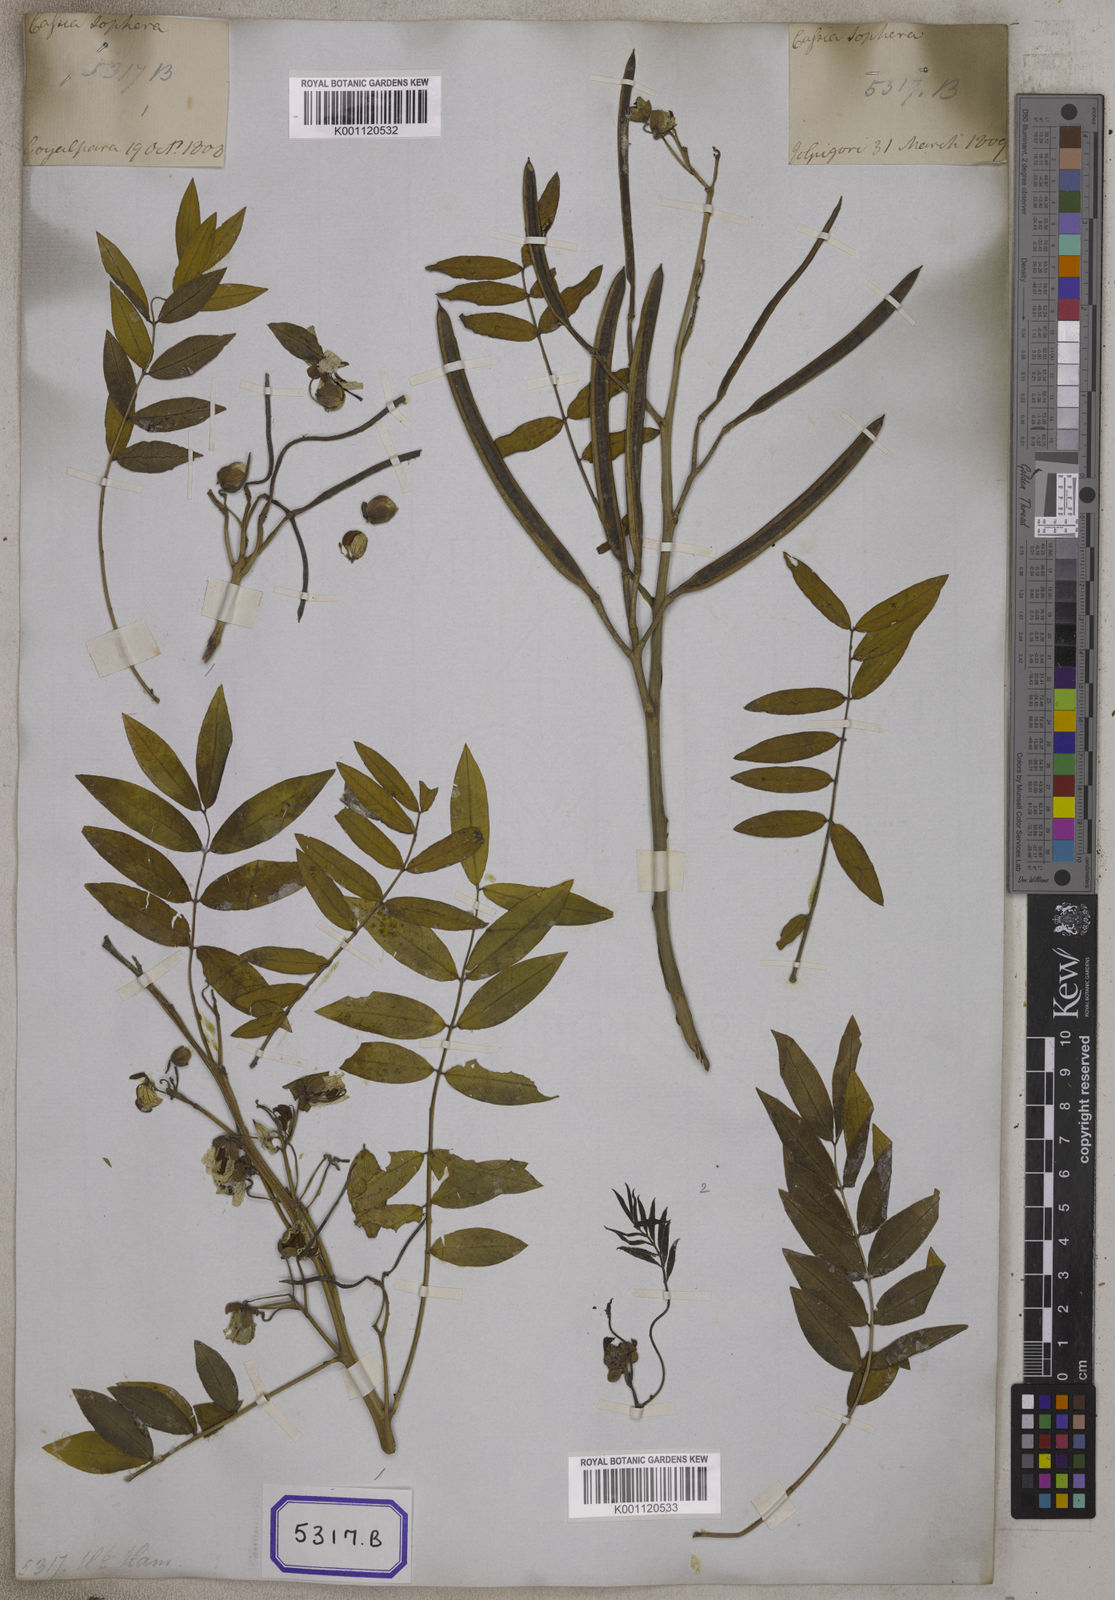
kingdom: Plantae
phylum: Tracheophyta
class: Magnoliopsida
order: Fabales
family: Fabaceae
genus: Cassia
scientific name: Cassia
